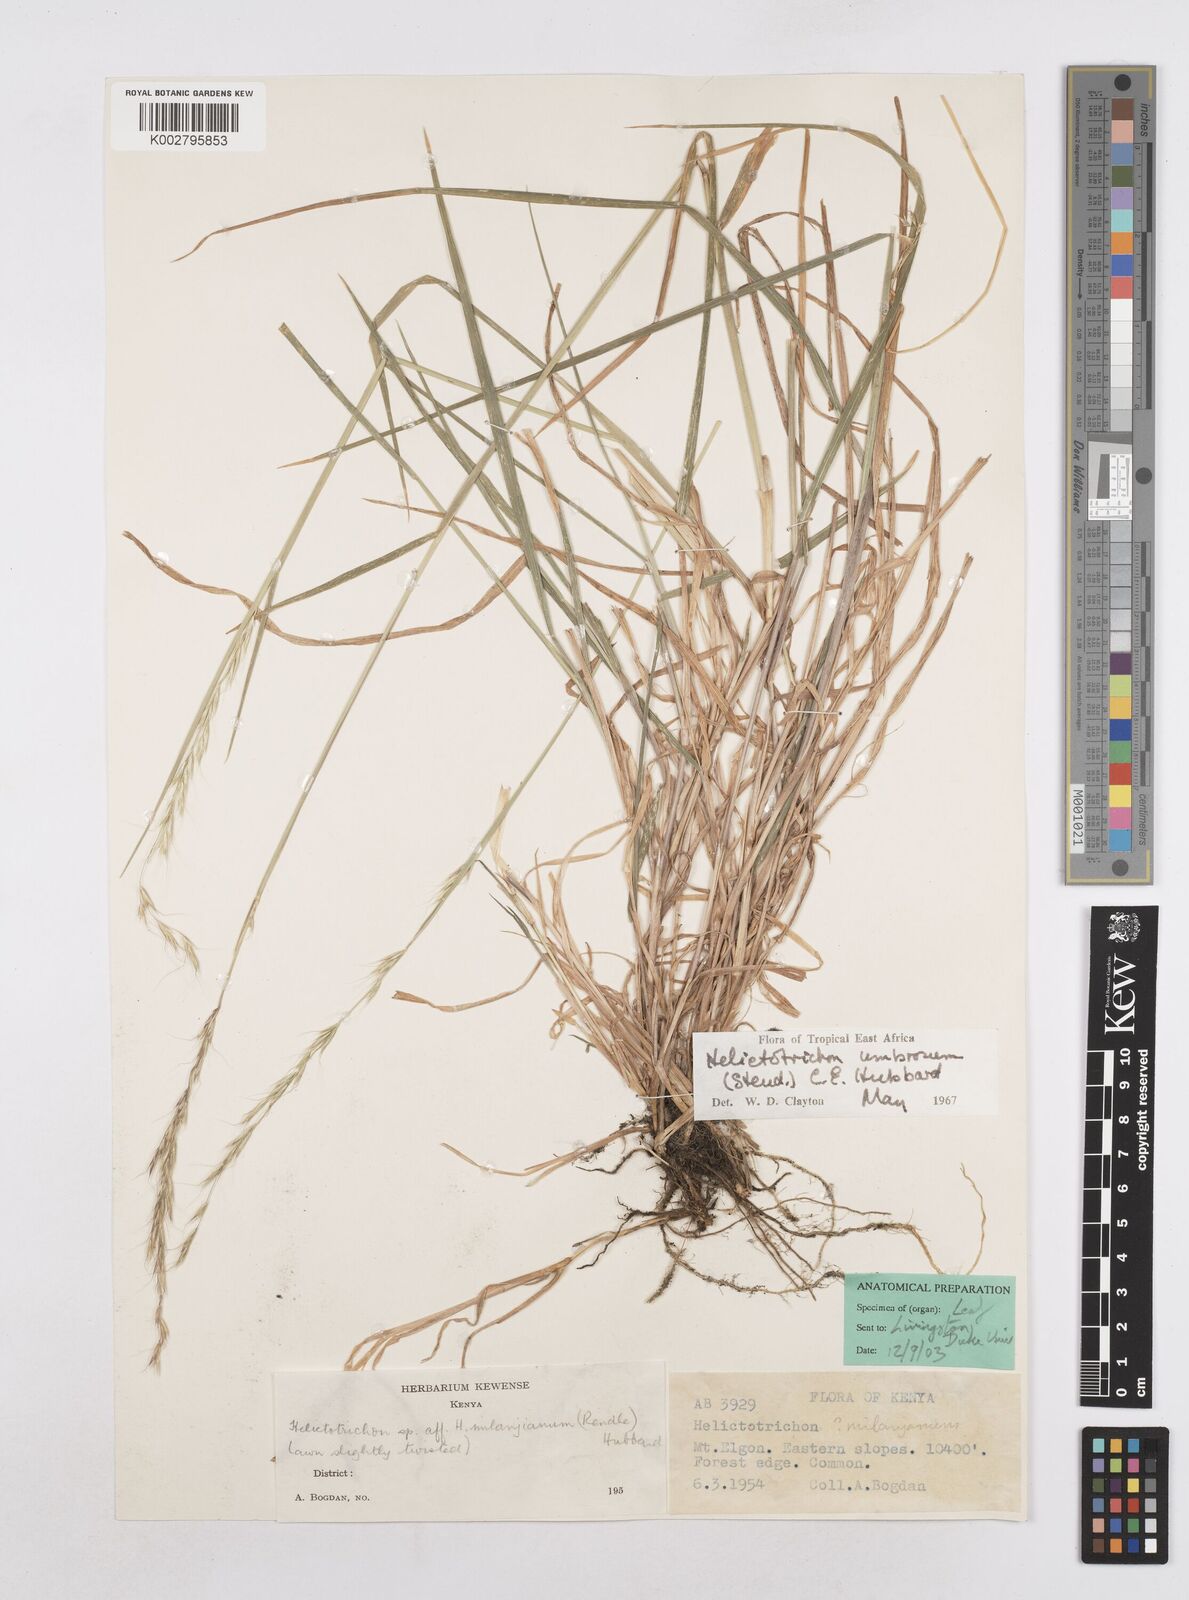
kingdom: Plantae
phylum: Tracheophyta
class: Liliopsida
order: Poales
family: Poaceae
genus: Trisetopsis
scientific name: Trisetopsis umbrosa
